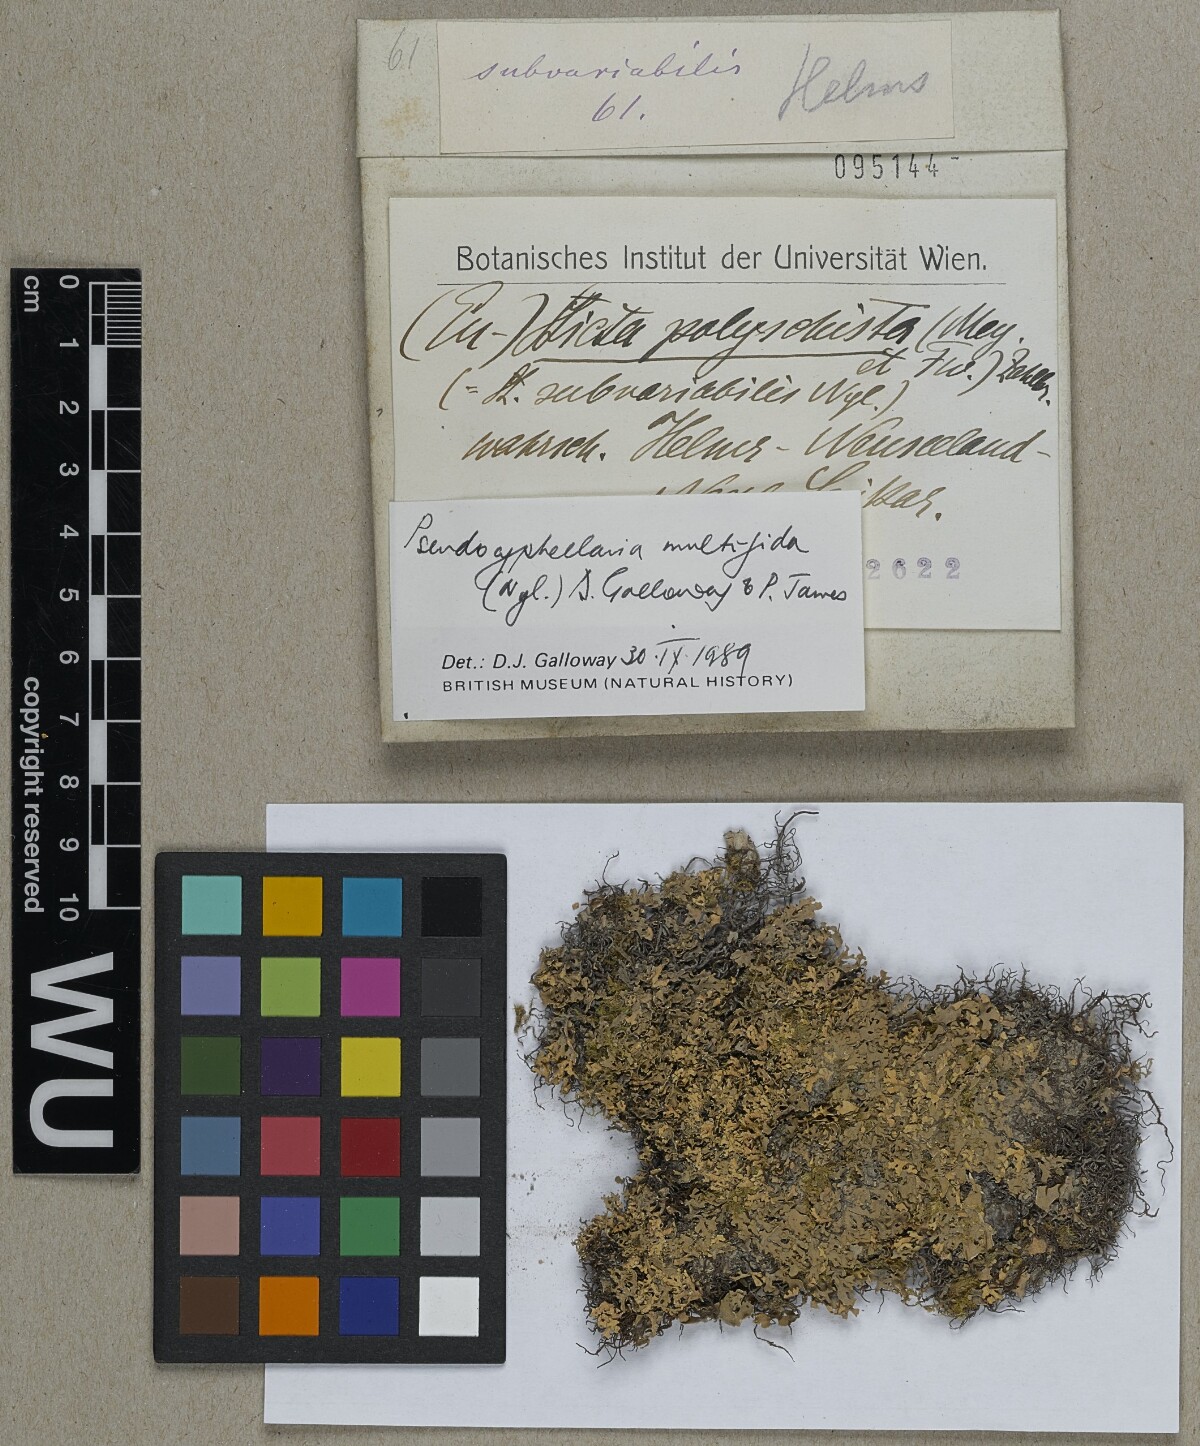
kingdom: Fungi
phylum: Ascomycota
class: Lecanoromycetes
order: Peltigerales
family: Lobariaceae
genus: Pseudocyphellaria
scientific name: Pseudocyphellaria multifida
